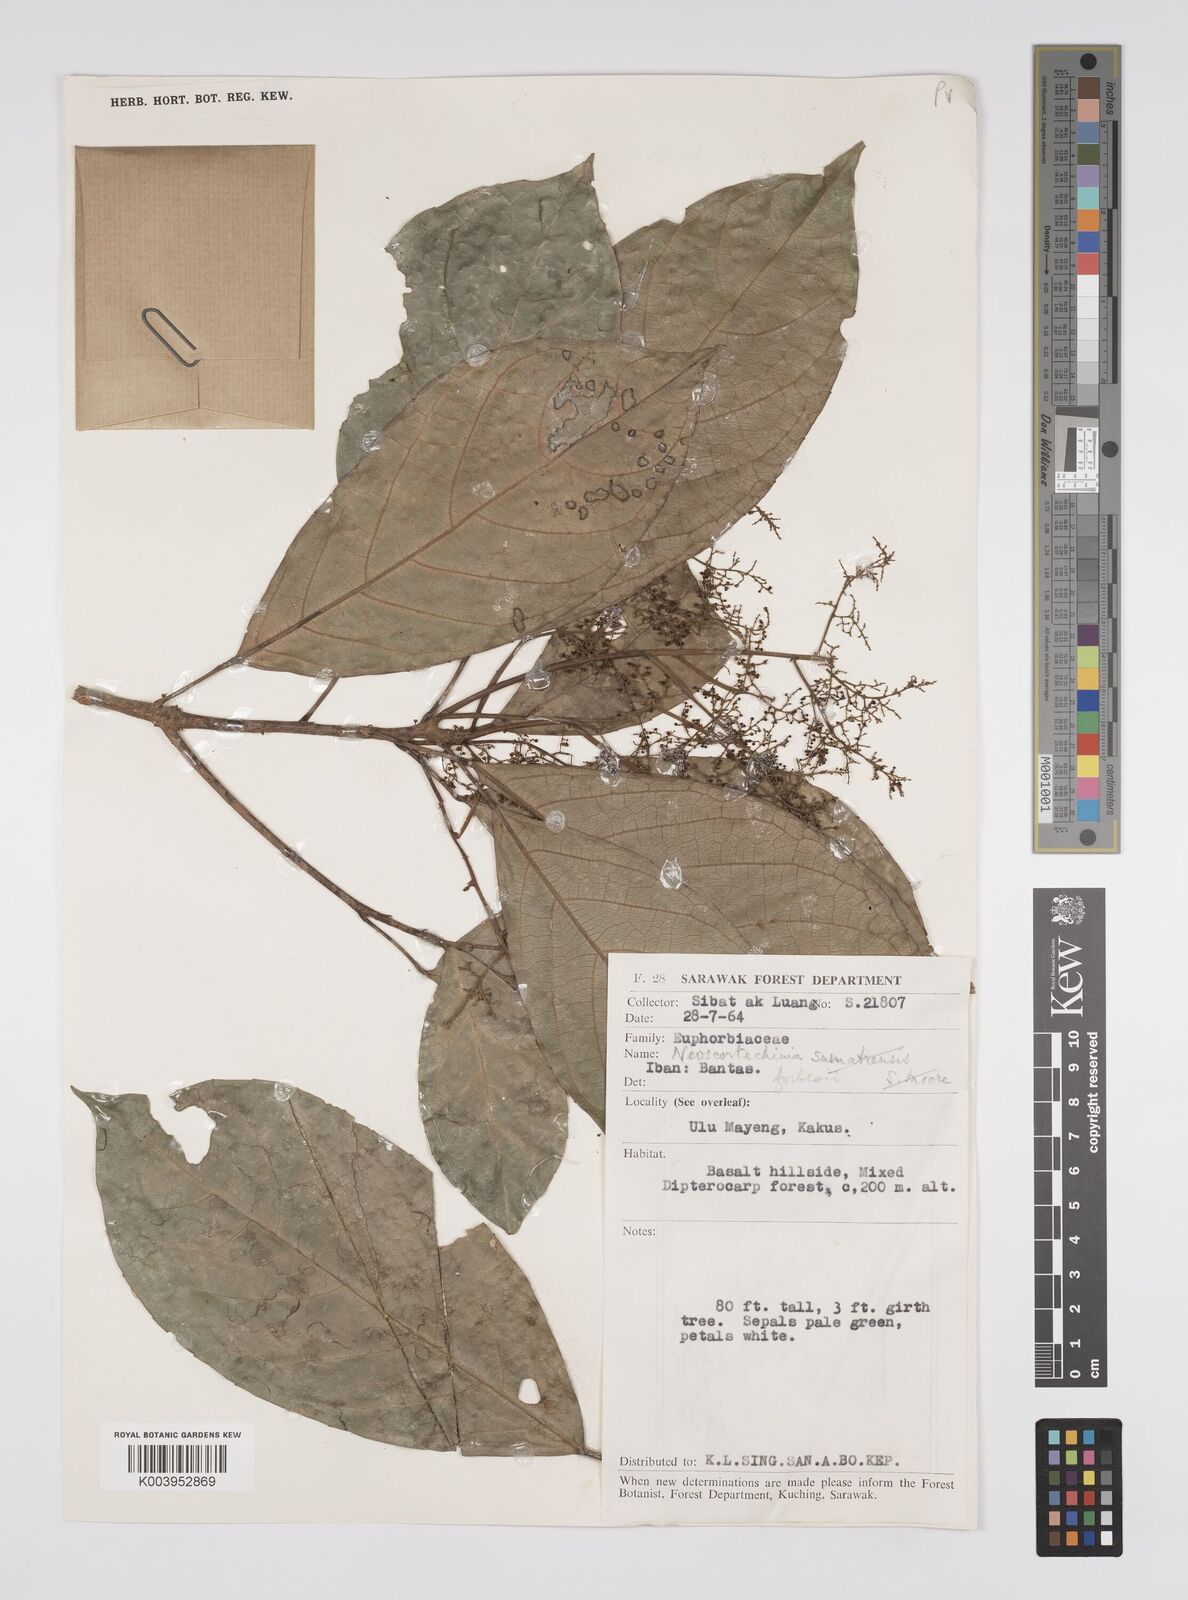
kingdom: Plantae
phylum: Tracheophyta
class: Magnoliopsida
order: Malpighiales
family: Euphorbiaceae
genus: Neoscortechinia
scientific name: Neoscortechinia philippinensis
